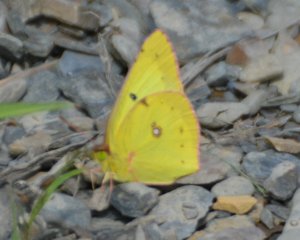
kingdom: Animalia
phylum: Arthropoda
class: Insecta
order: Lepidoptera
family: Pieridae
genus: Colias
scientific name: Colias philodice
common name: Clouded Sulphur
